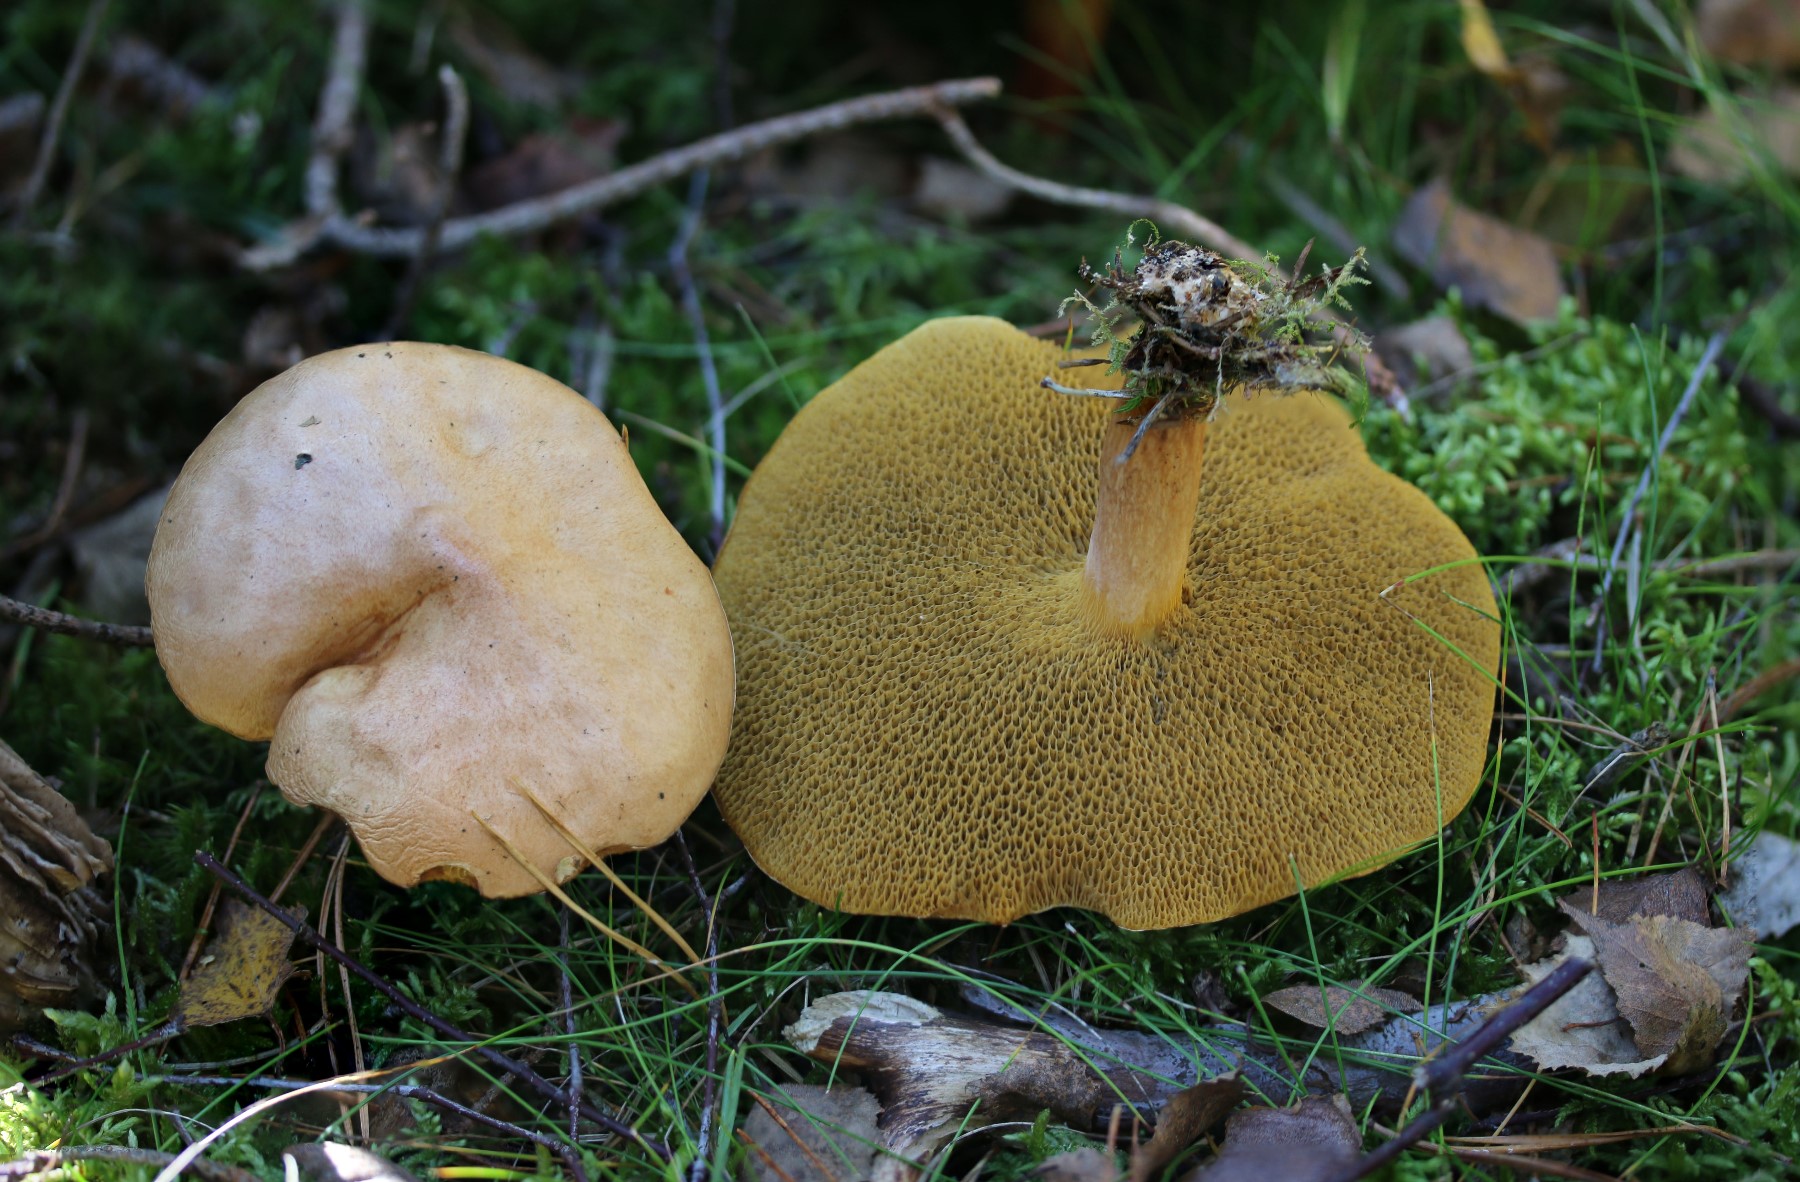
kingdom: Fungi
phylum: Basidiomycota
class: Agaricomycetes
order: Boletales
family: Suillaceae
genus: Suillus
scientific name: Suillus bovinus
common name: grovporet slimrørhat
